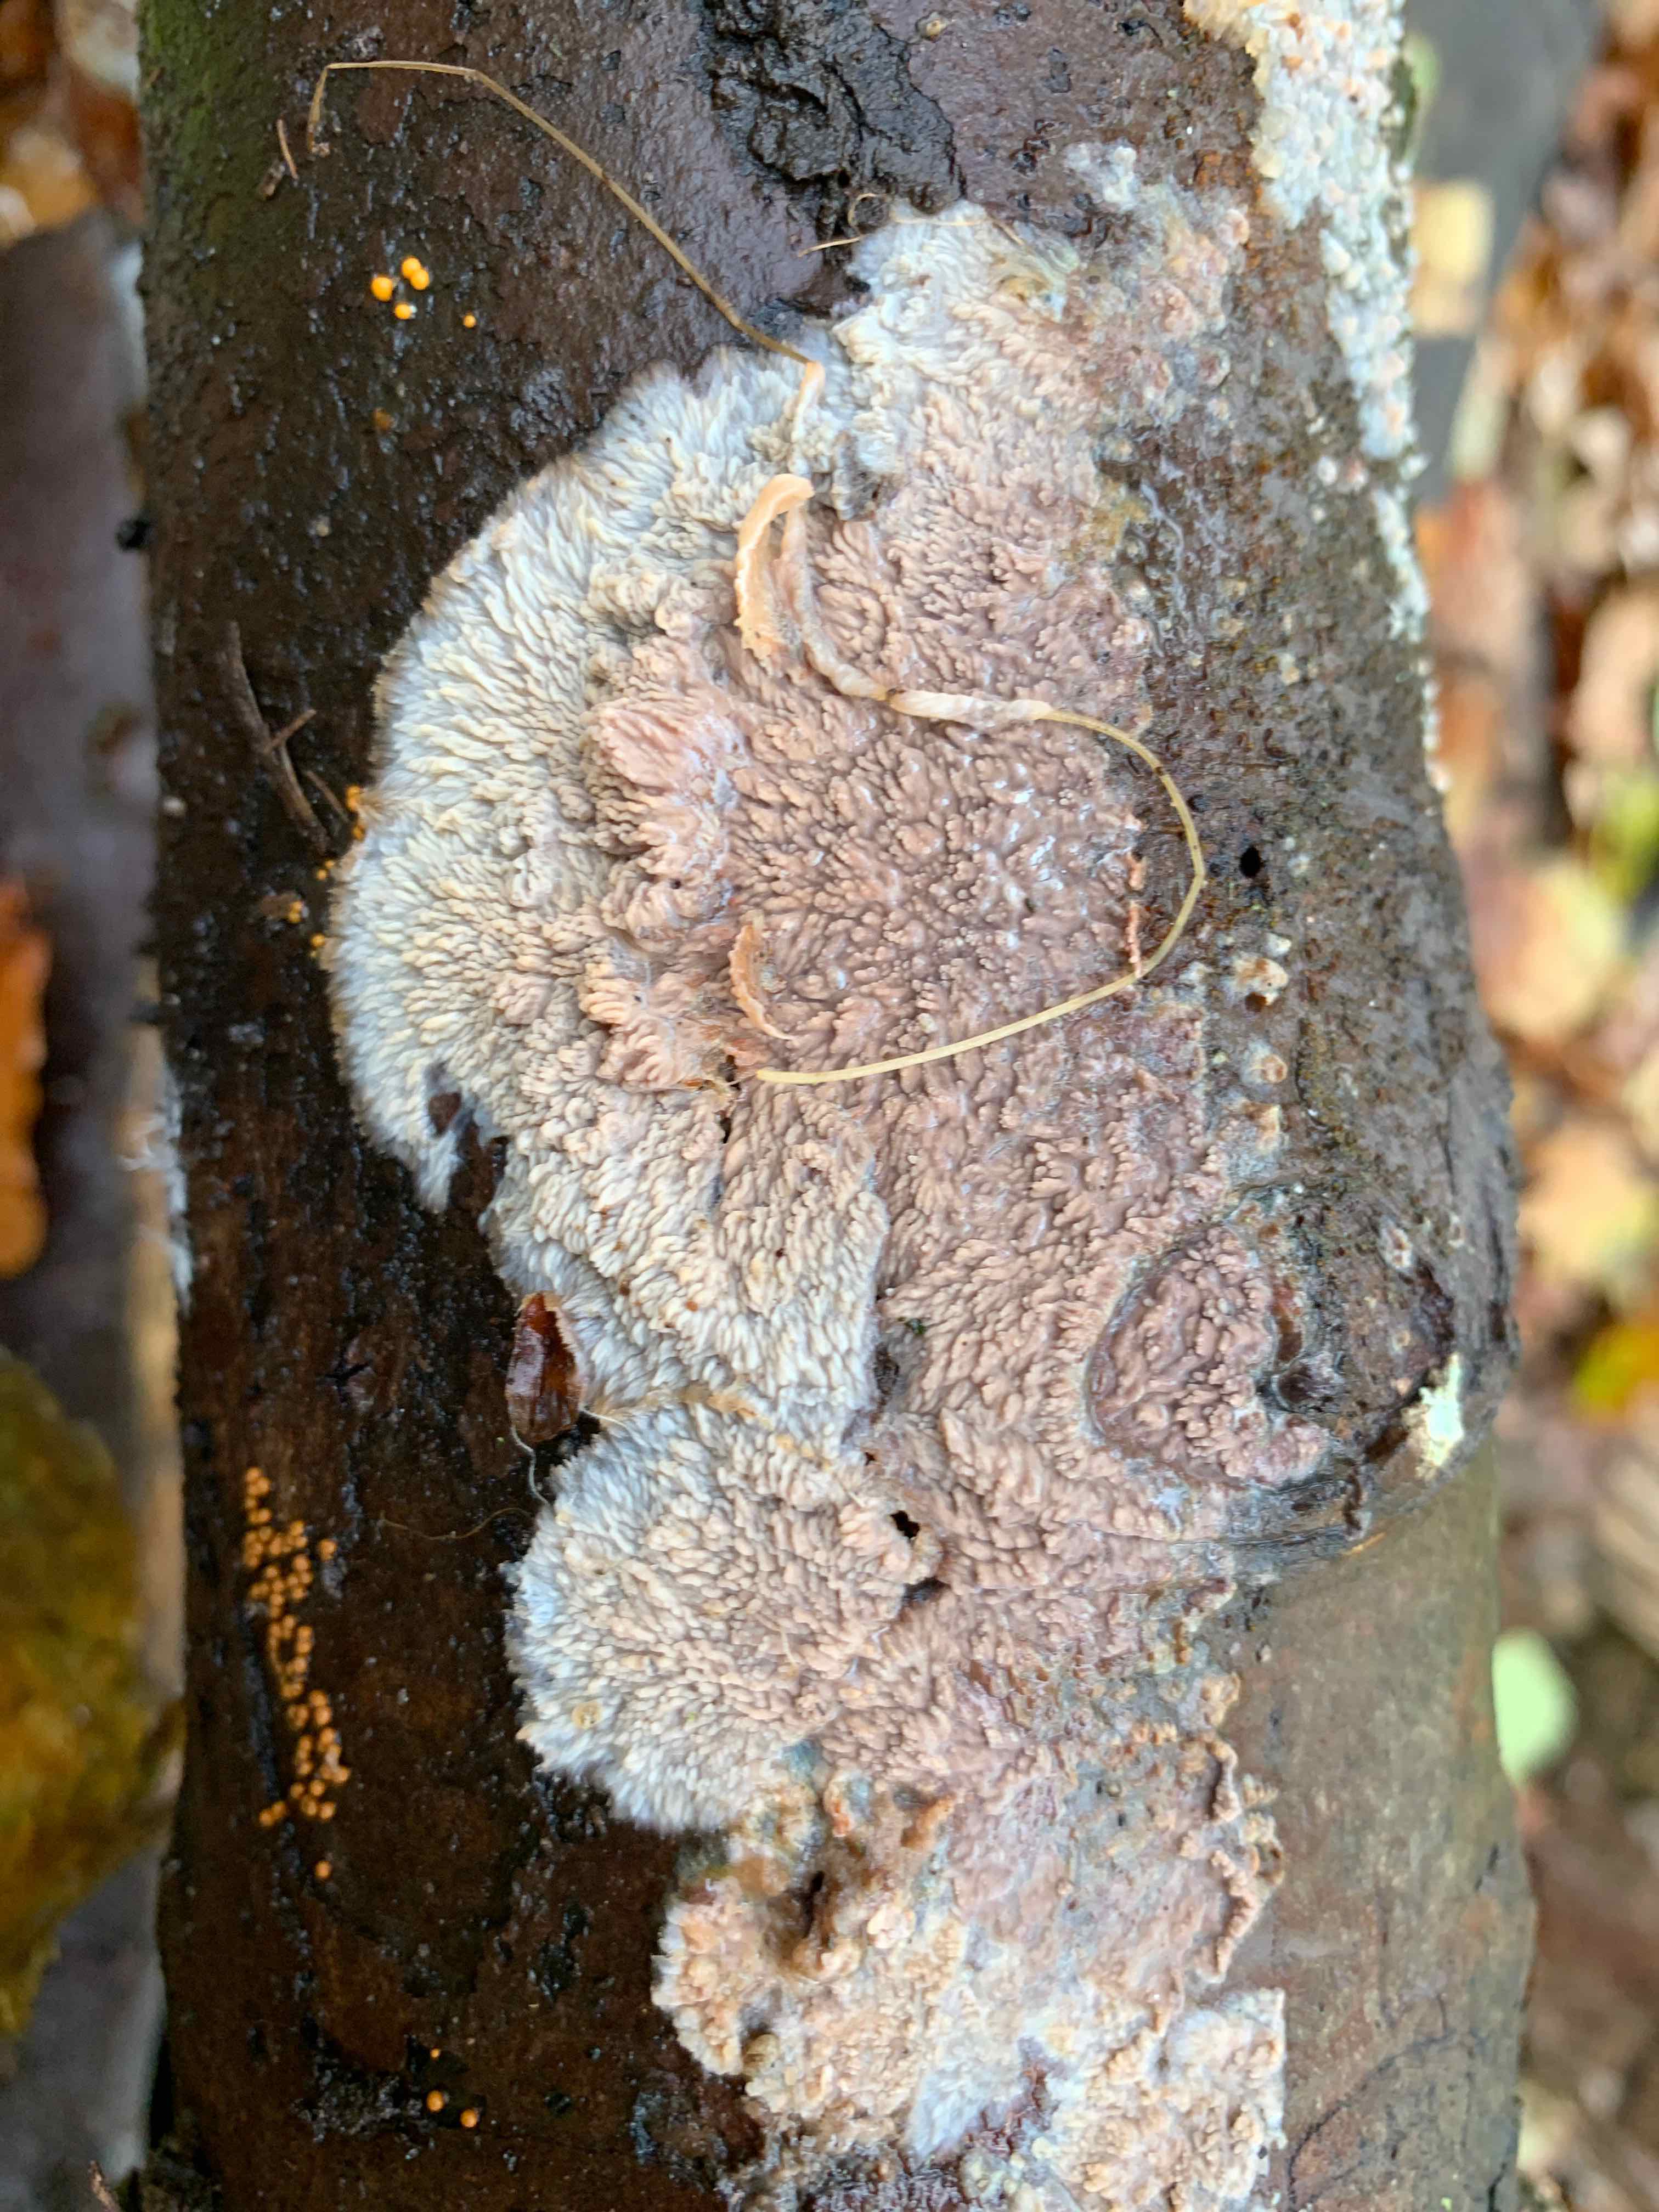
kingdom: Fungi
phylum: Basidiomycota
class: Agaricomycetes
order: Polyporales
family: Meruliaceae
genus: Phlebia
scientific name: Phlebia radiata
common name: stråle-åresvamp
